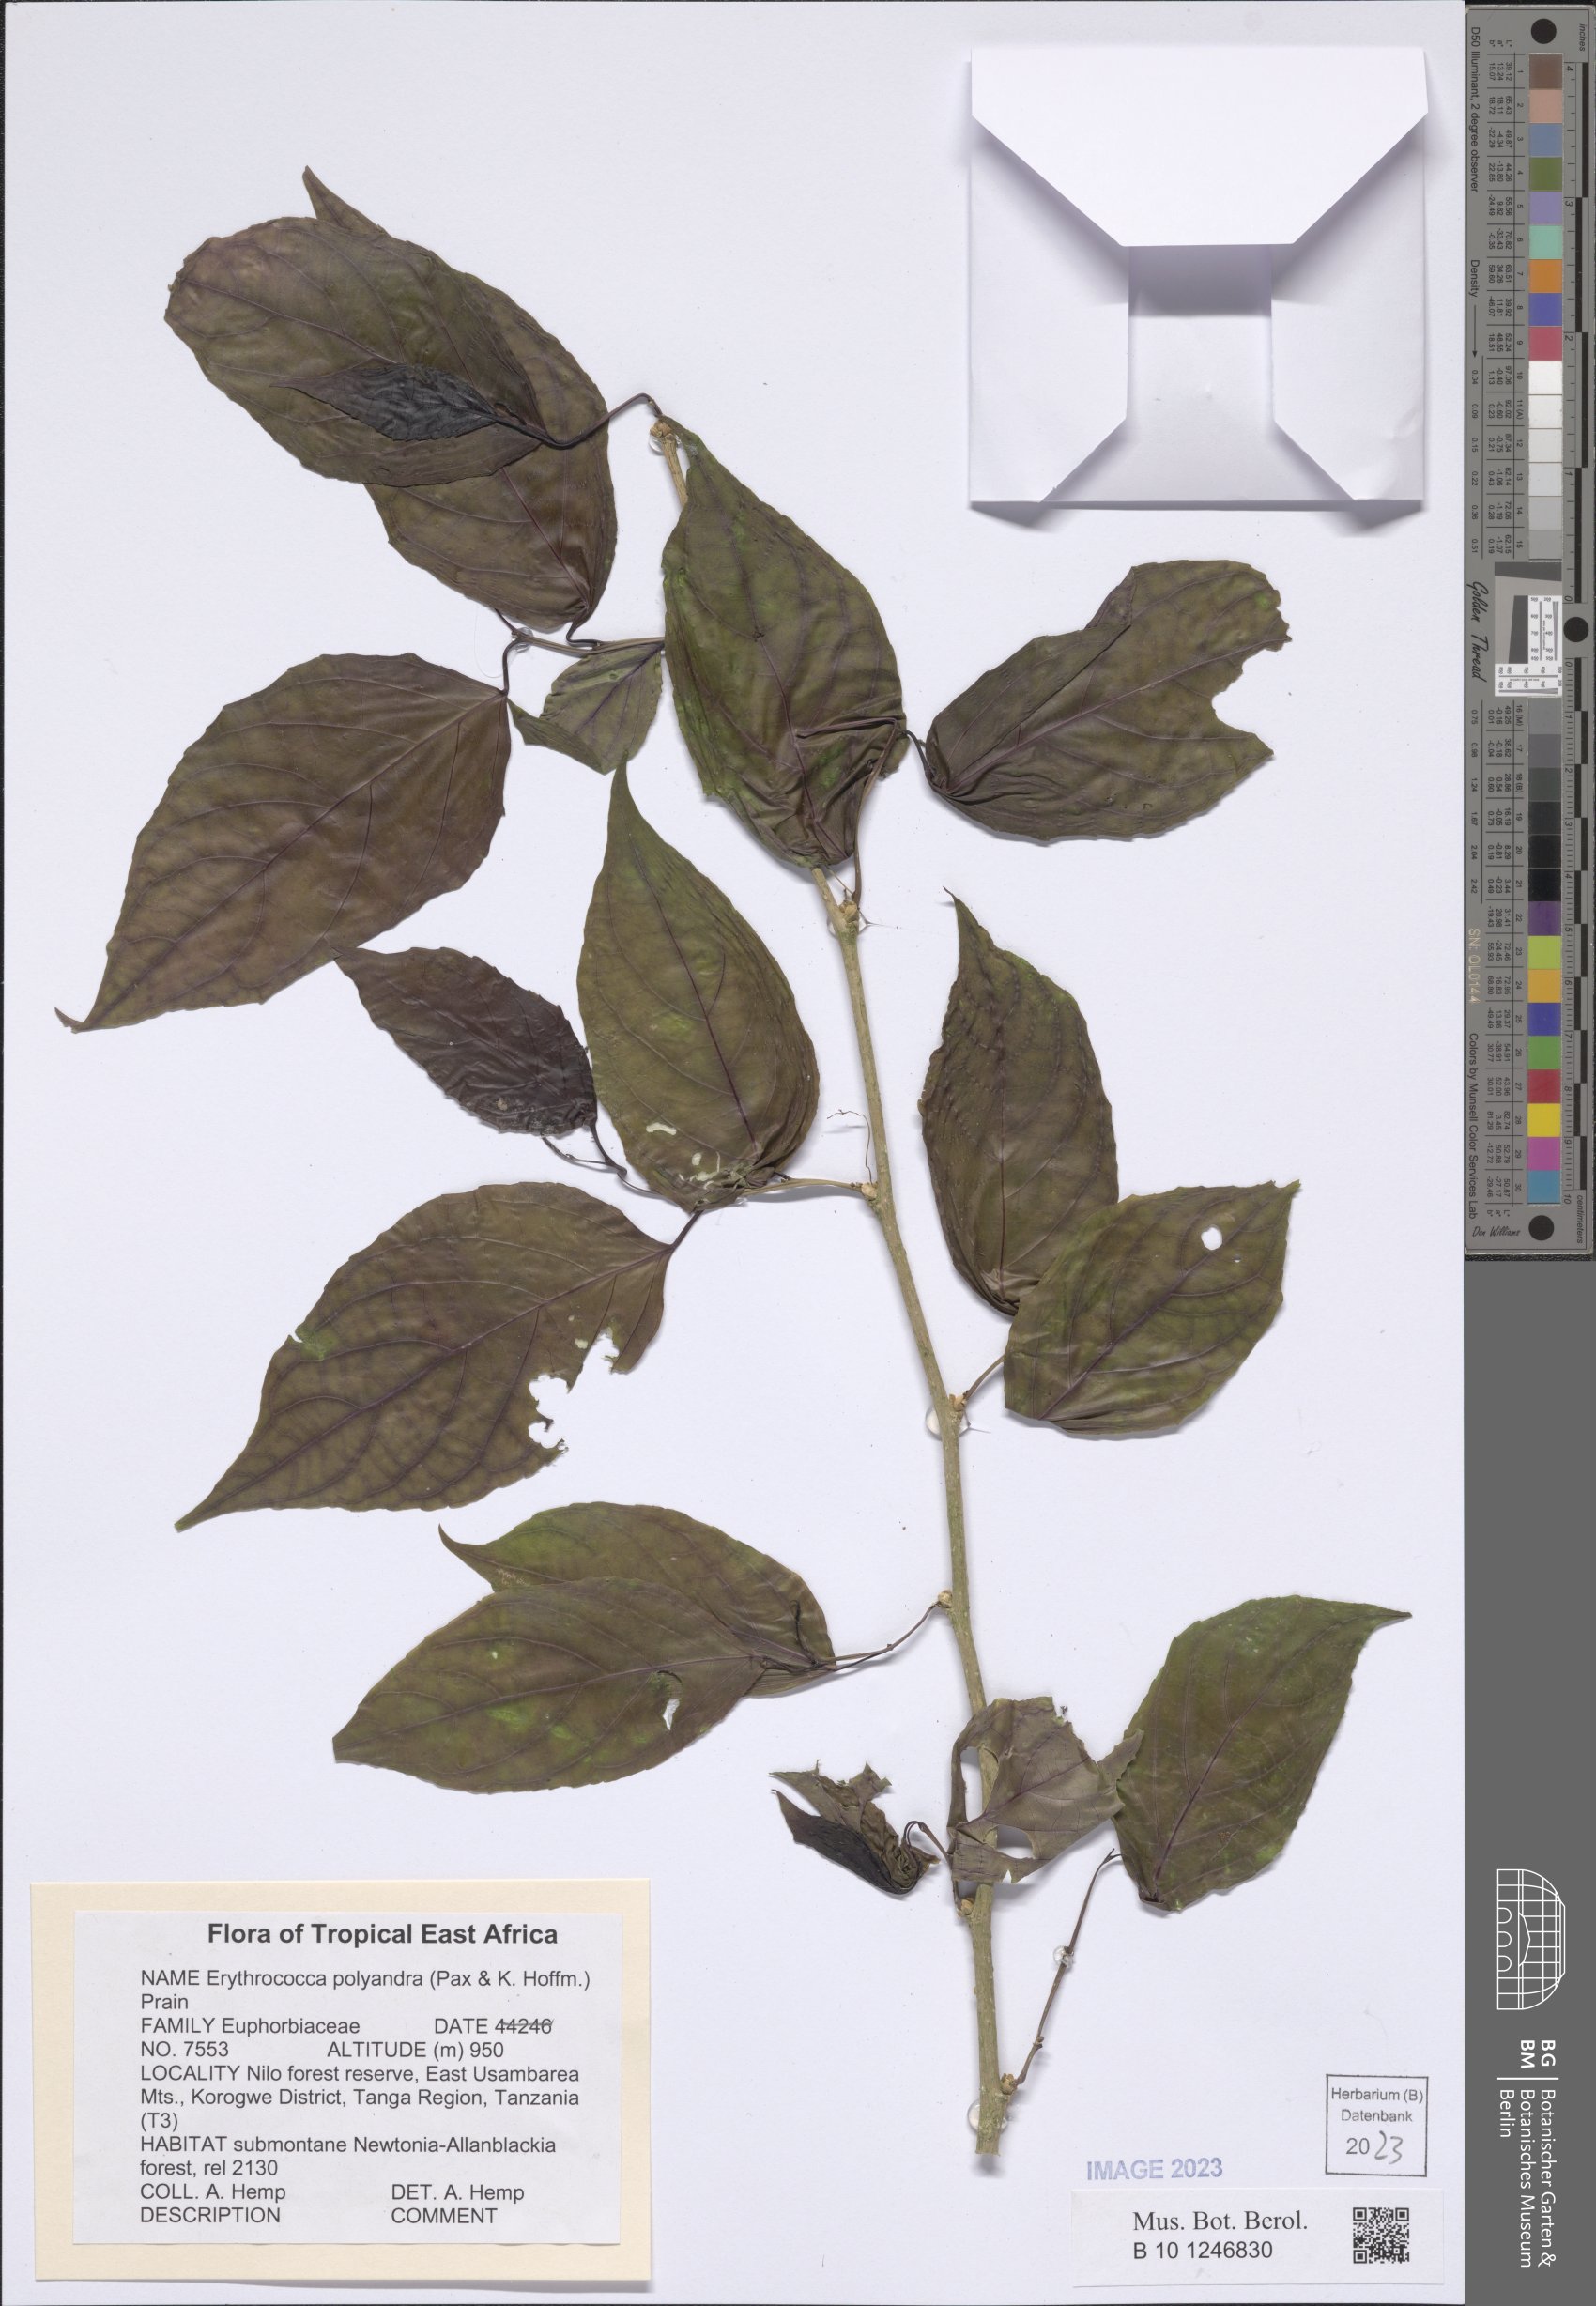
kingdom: Plantae
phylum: Tracheophyta
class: Magnoliopsida
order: Malpighiales
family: Euphorbiaceae
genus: Erythrococca
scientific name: Erythrococca polyandra
